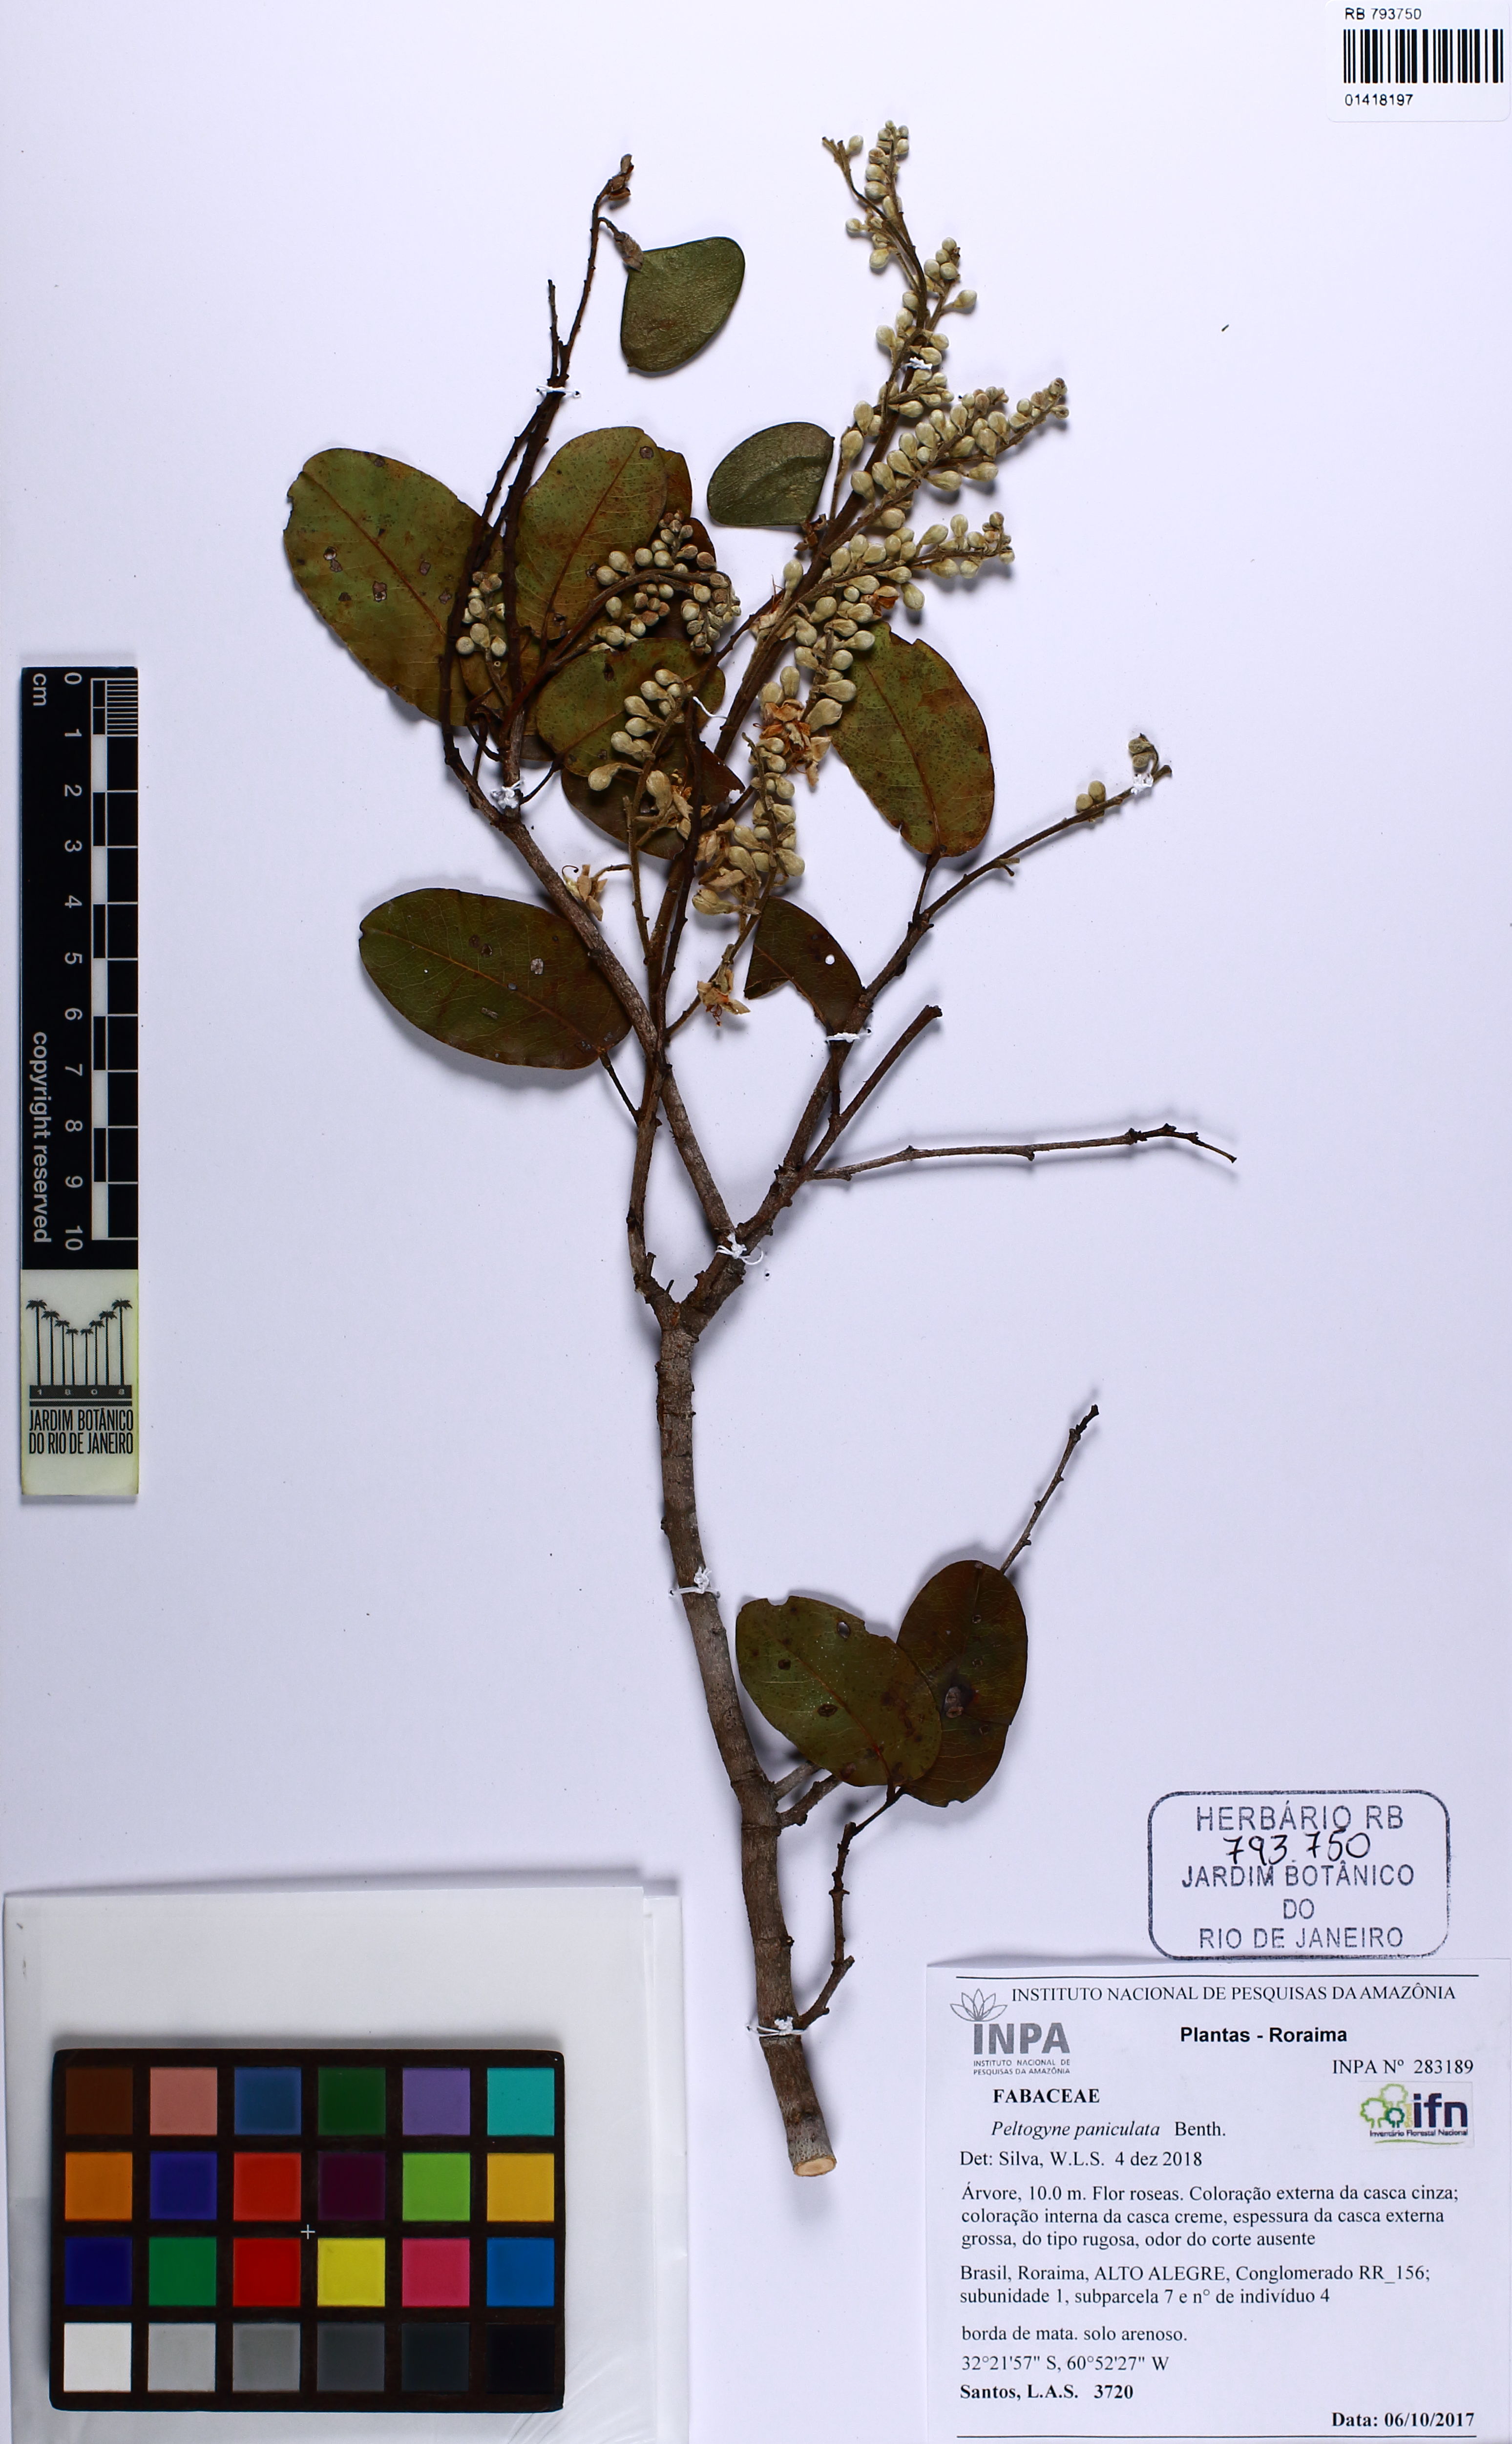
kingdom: Plantae
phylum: Tracheophyta
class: Magnoliopsida
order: Fabales
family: Fabaceae
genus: Peltogyne
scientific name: Peltogyne paniculata
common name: Purpleheart
